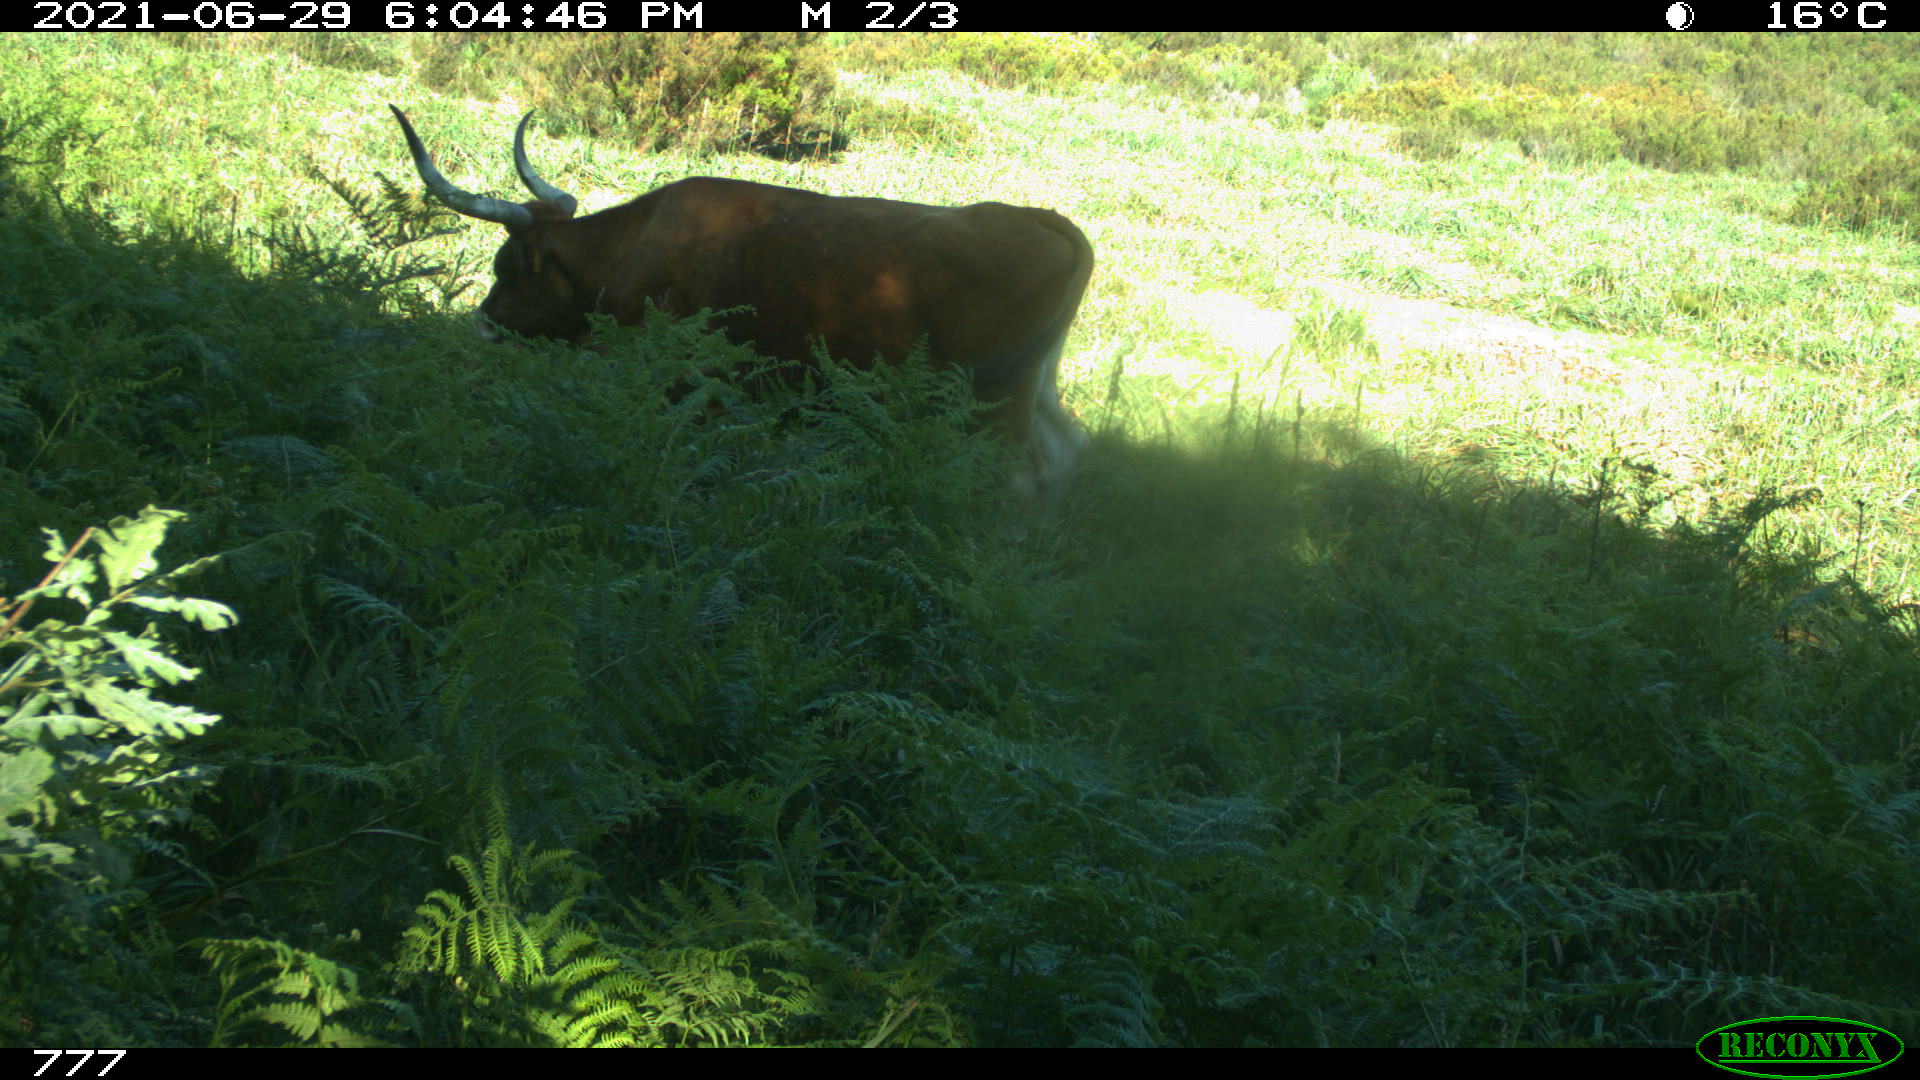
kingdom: Animalia
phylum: Chordata
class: Mammalia
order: Artiodactyla
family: Bovidae
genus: Bos
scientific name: Bos taurus
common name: Domesticated cattle
